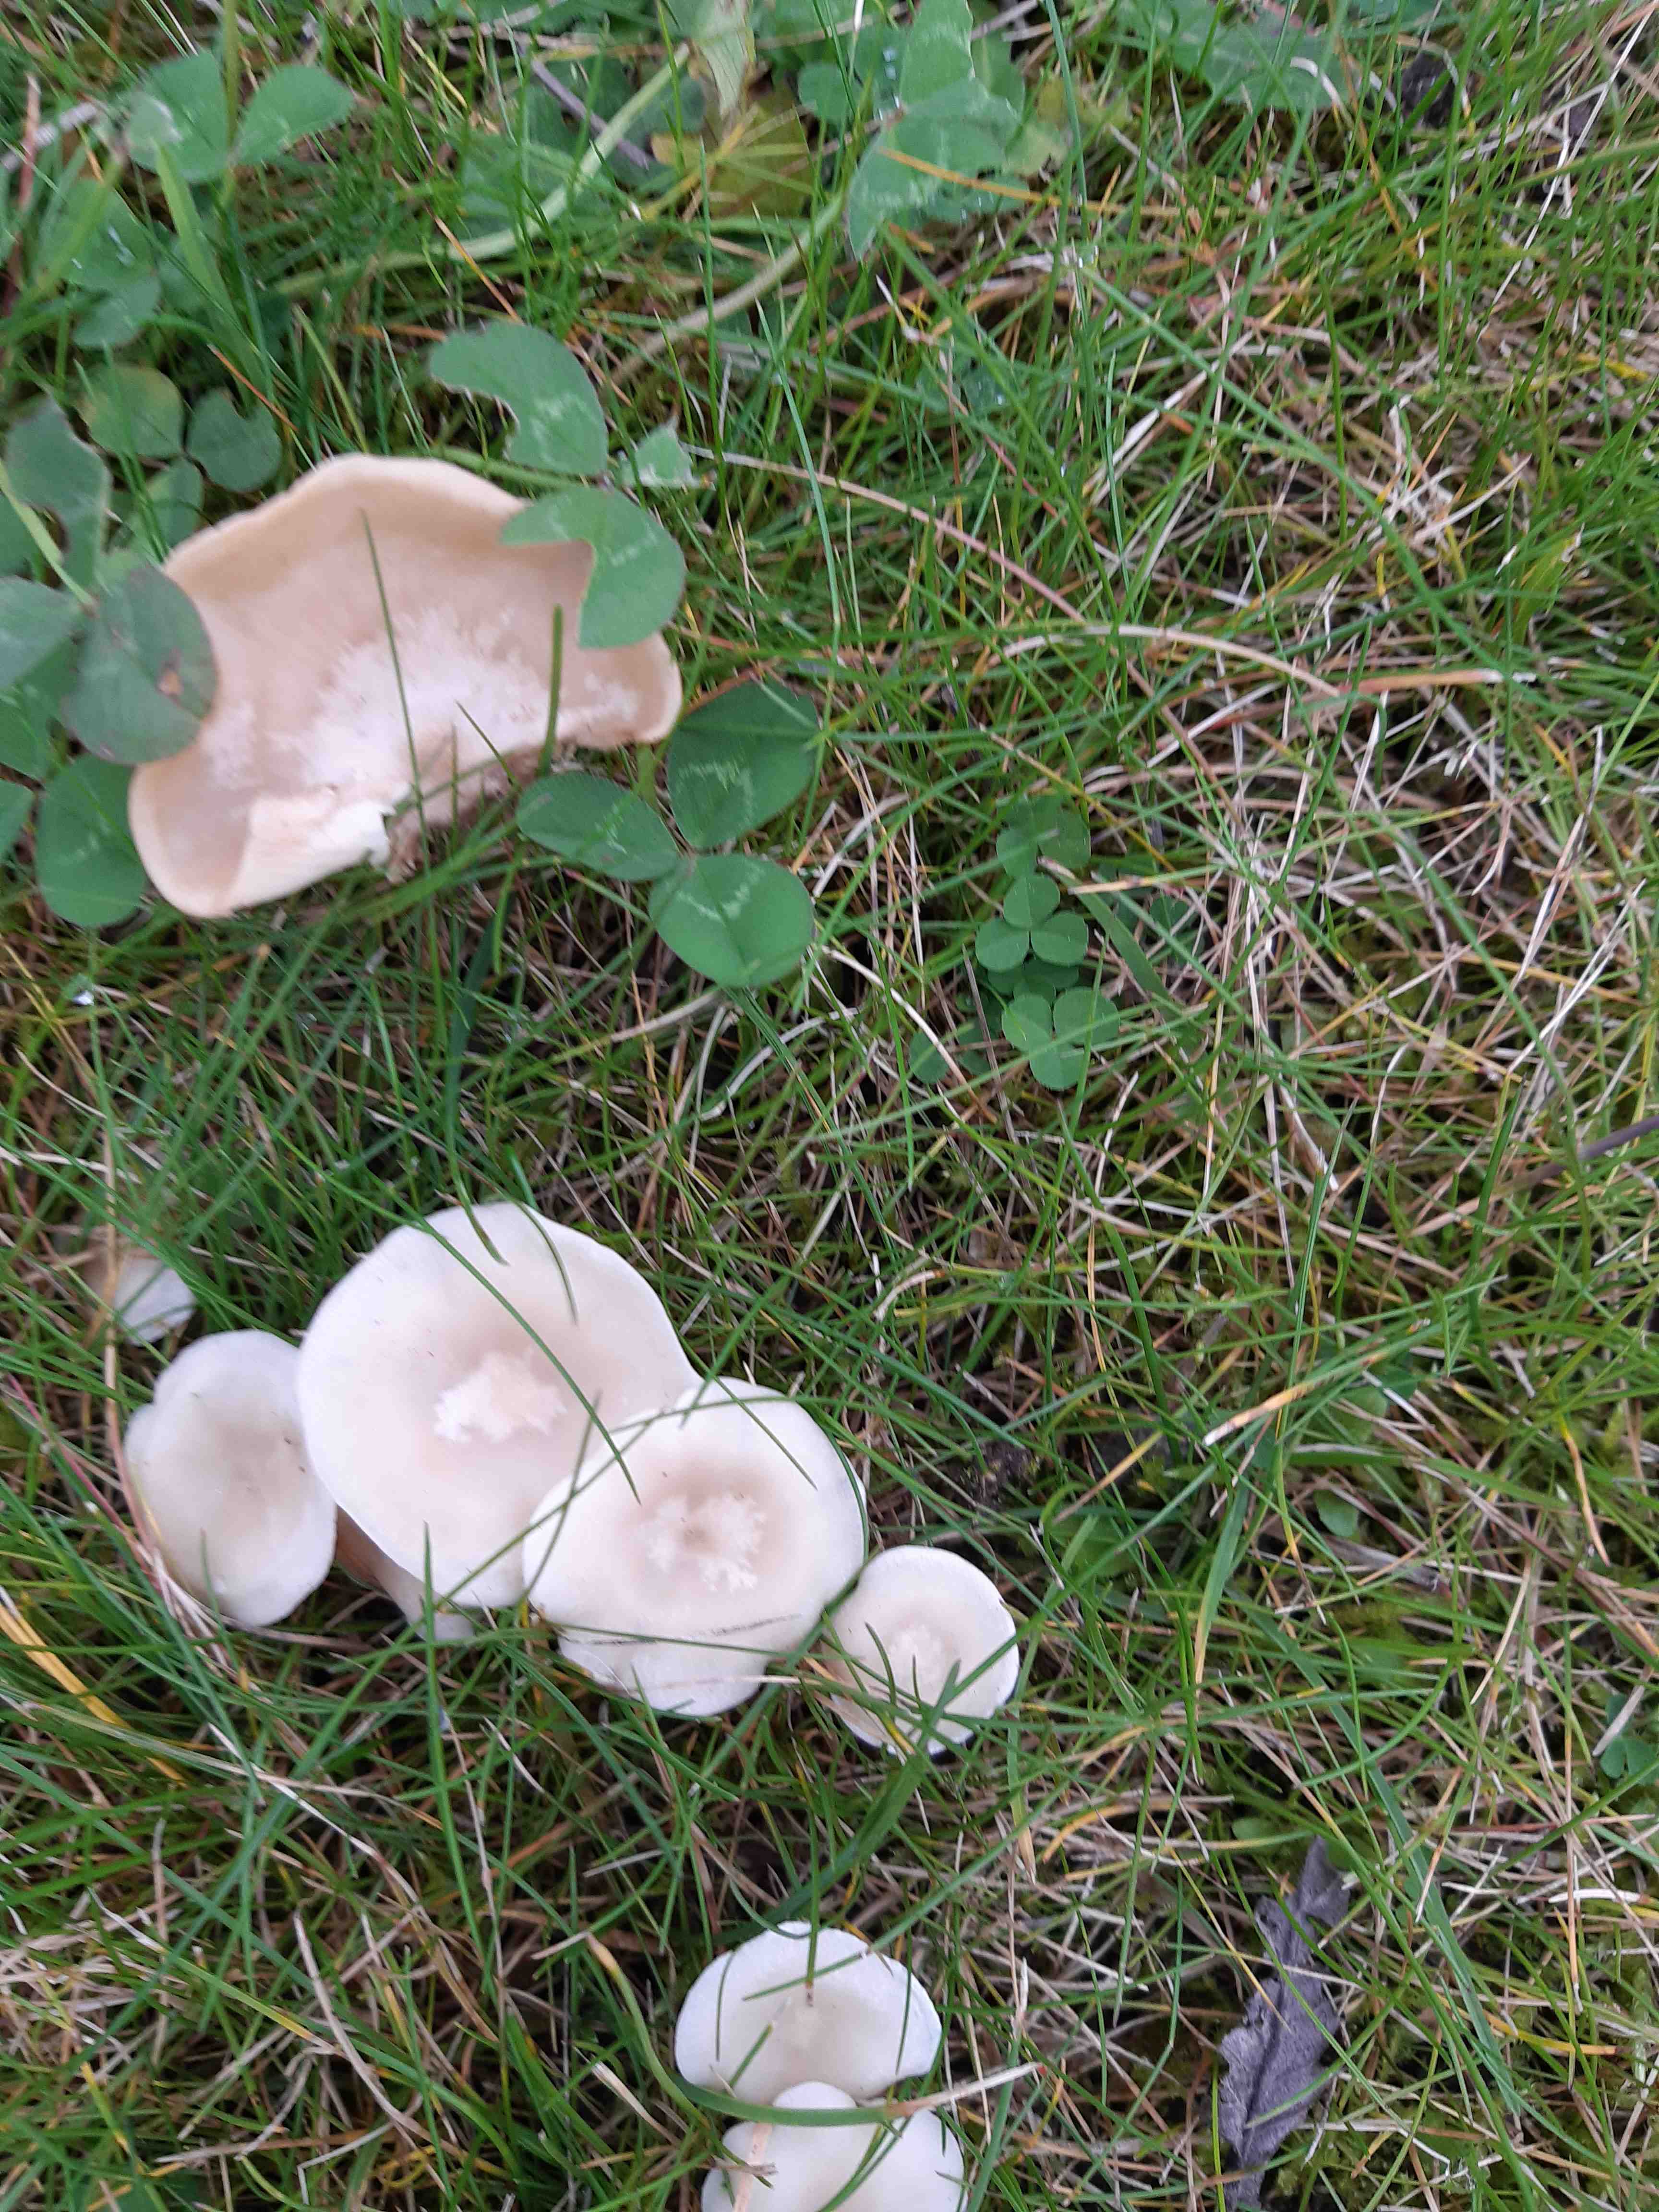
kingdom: Fungi
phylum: Basidiomycota
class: Agaricomycetes
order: Agaricales
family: Tricholomataceae
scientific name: Tricholomataceae
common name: ridderhatfamilien
